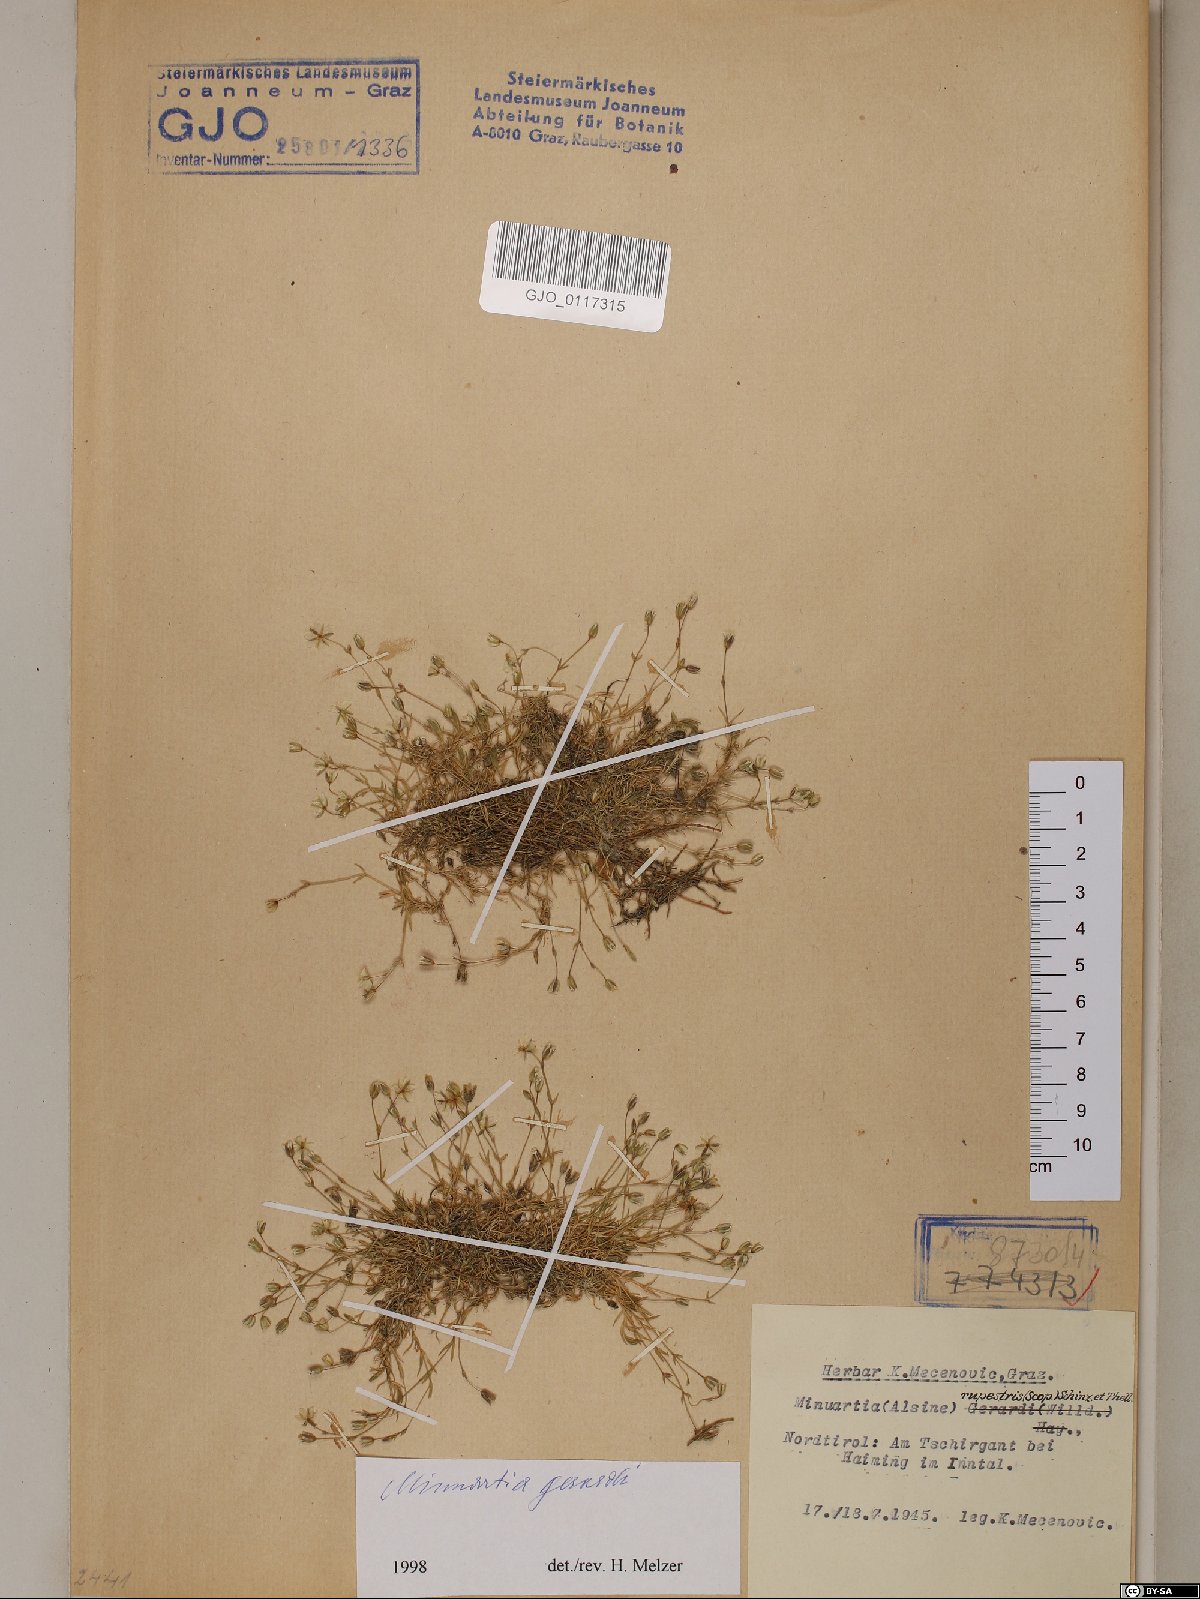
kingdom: Plantae
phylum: Tracheophyta
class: Magnoliopsida
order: Caryophyllales
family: Caryophyllaceae
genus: Sabulina
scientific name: Sabulina verna
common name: Spring sandwort
